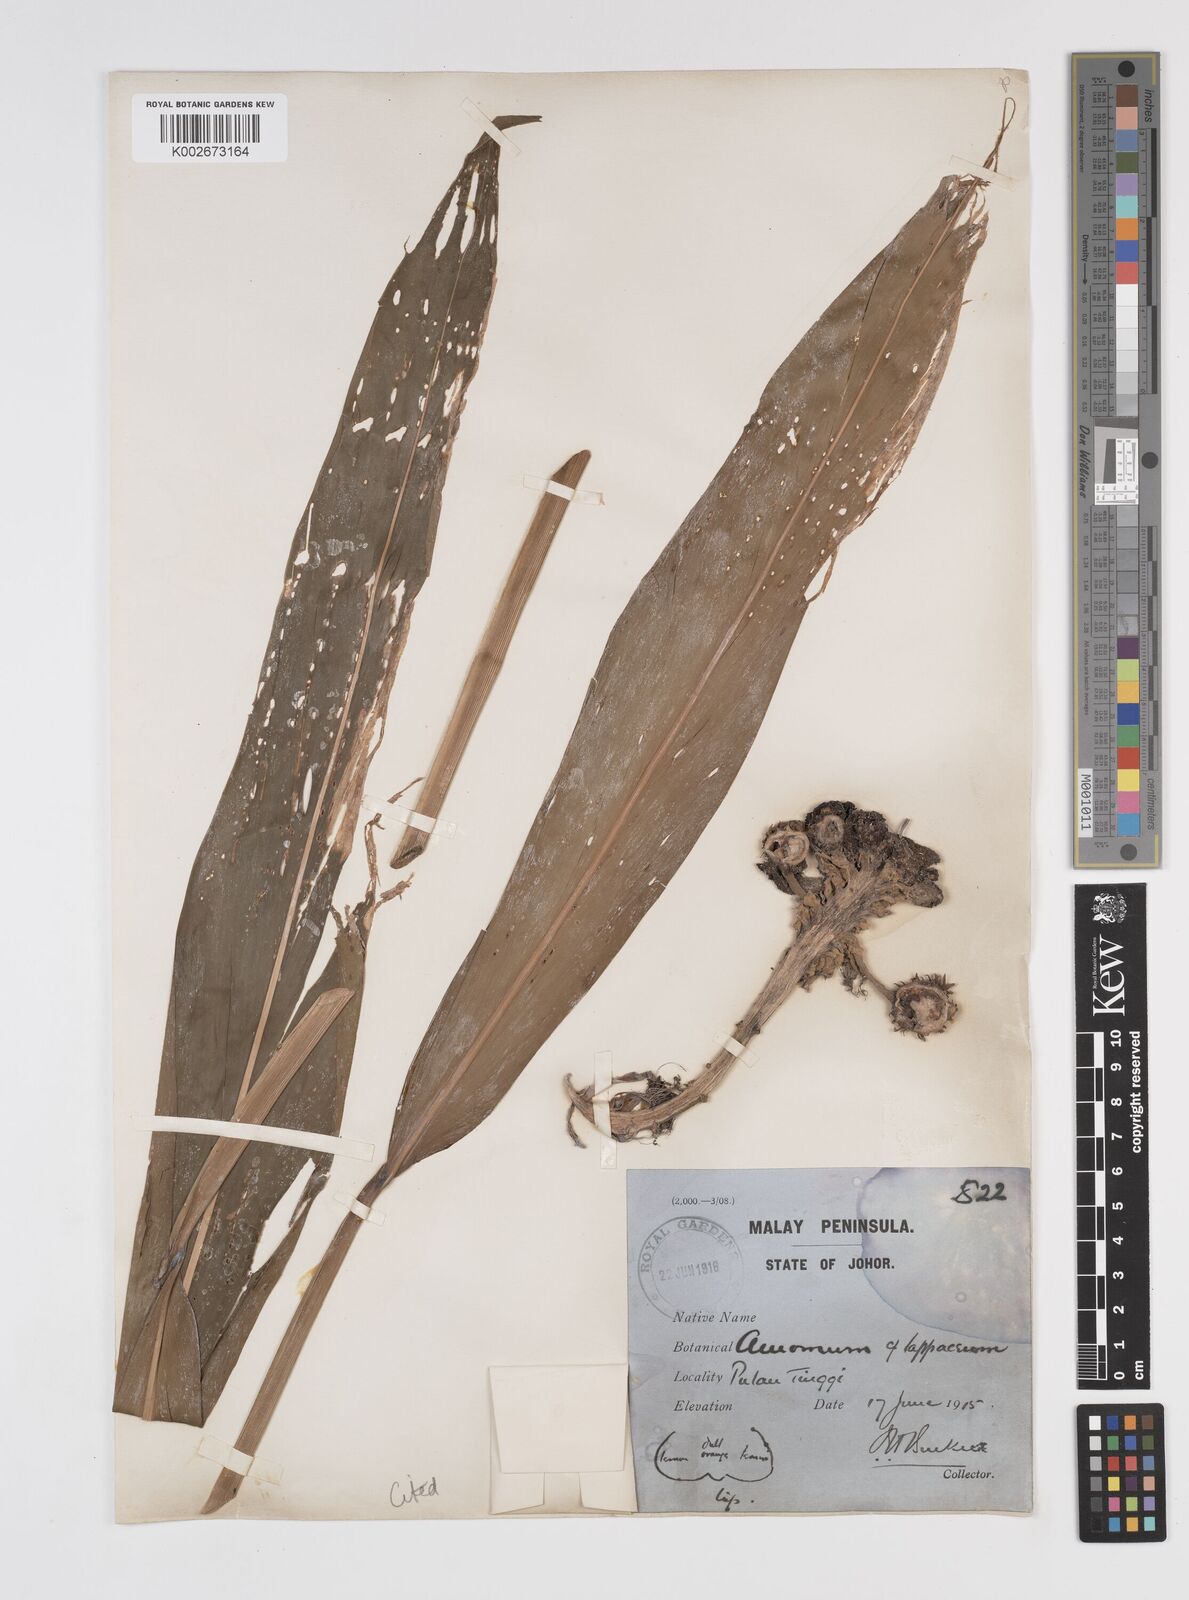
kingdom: Plantae
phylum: Tracheophyta
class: Liliopsida
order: Zingiberales
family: Zingiberaceae
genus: Amomum
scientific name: Amomum cephalotes
